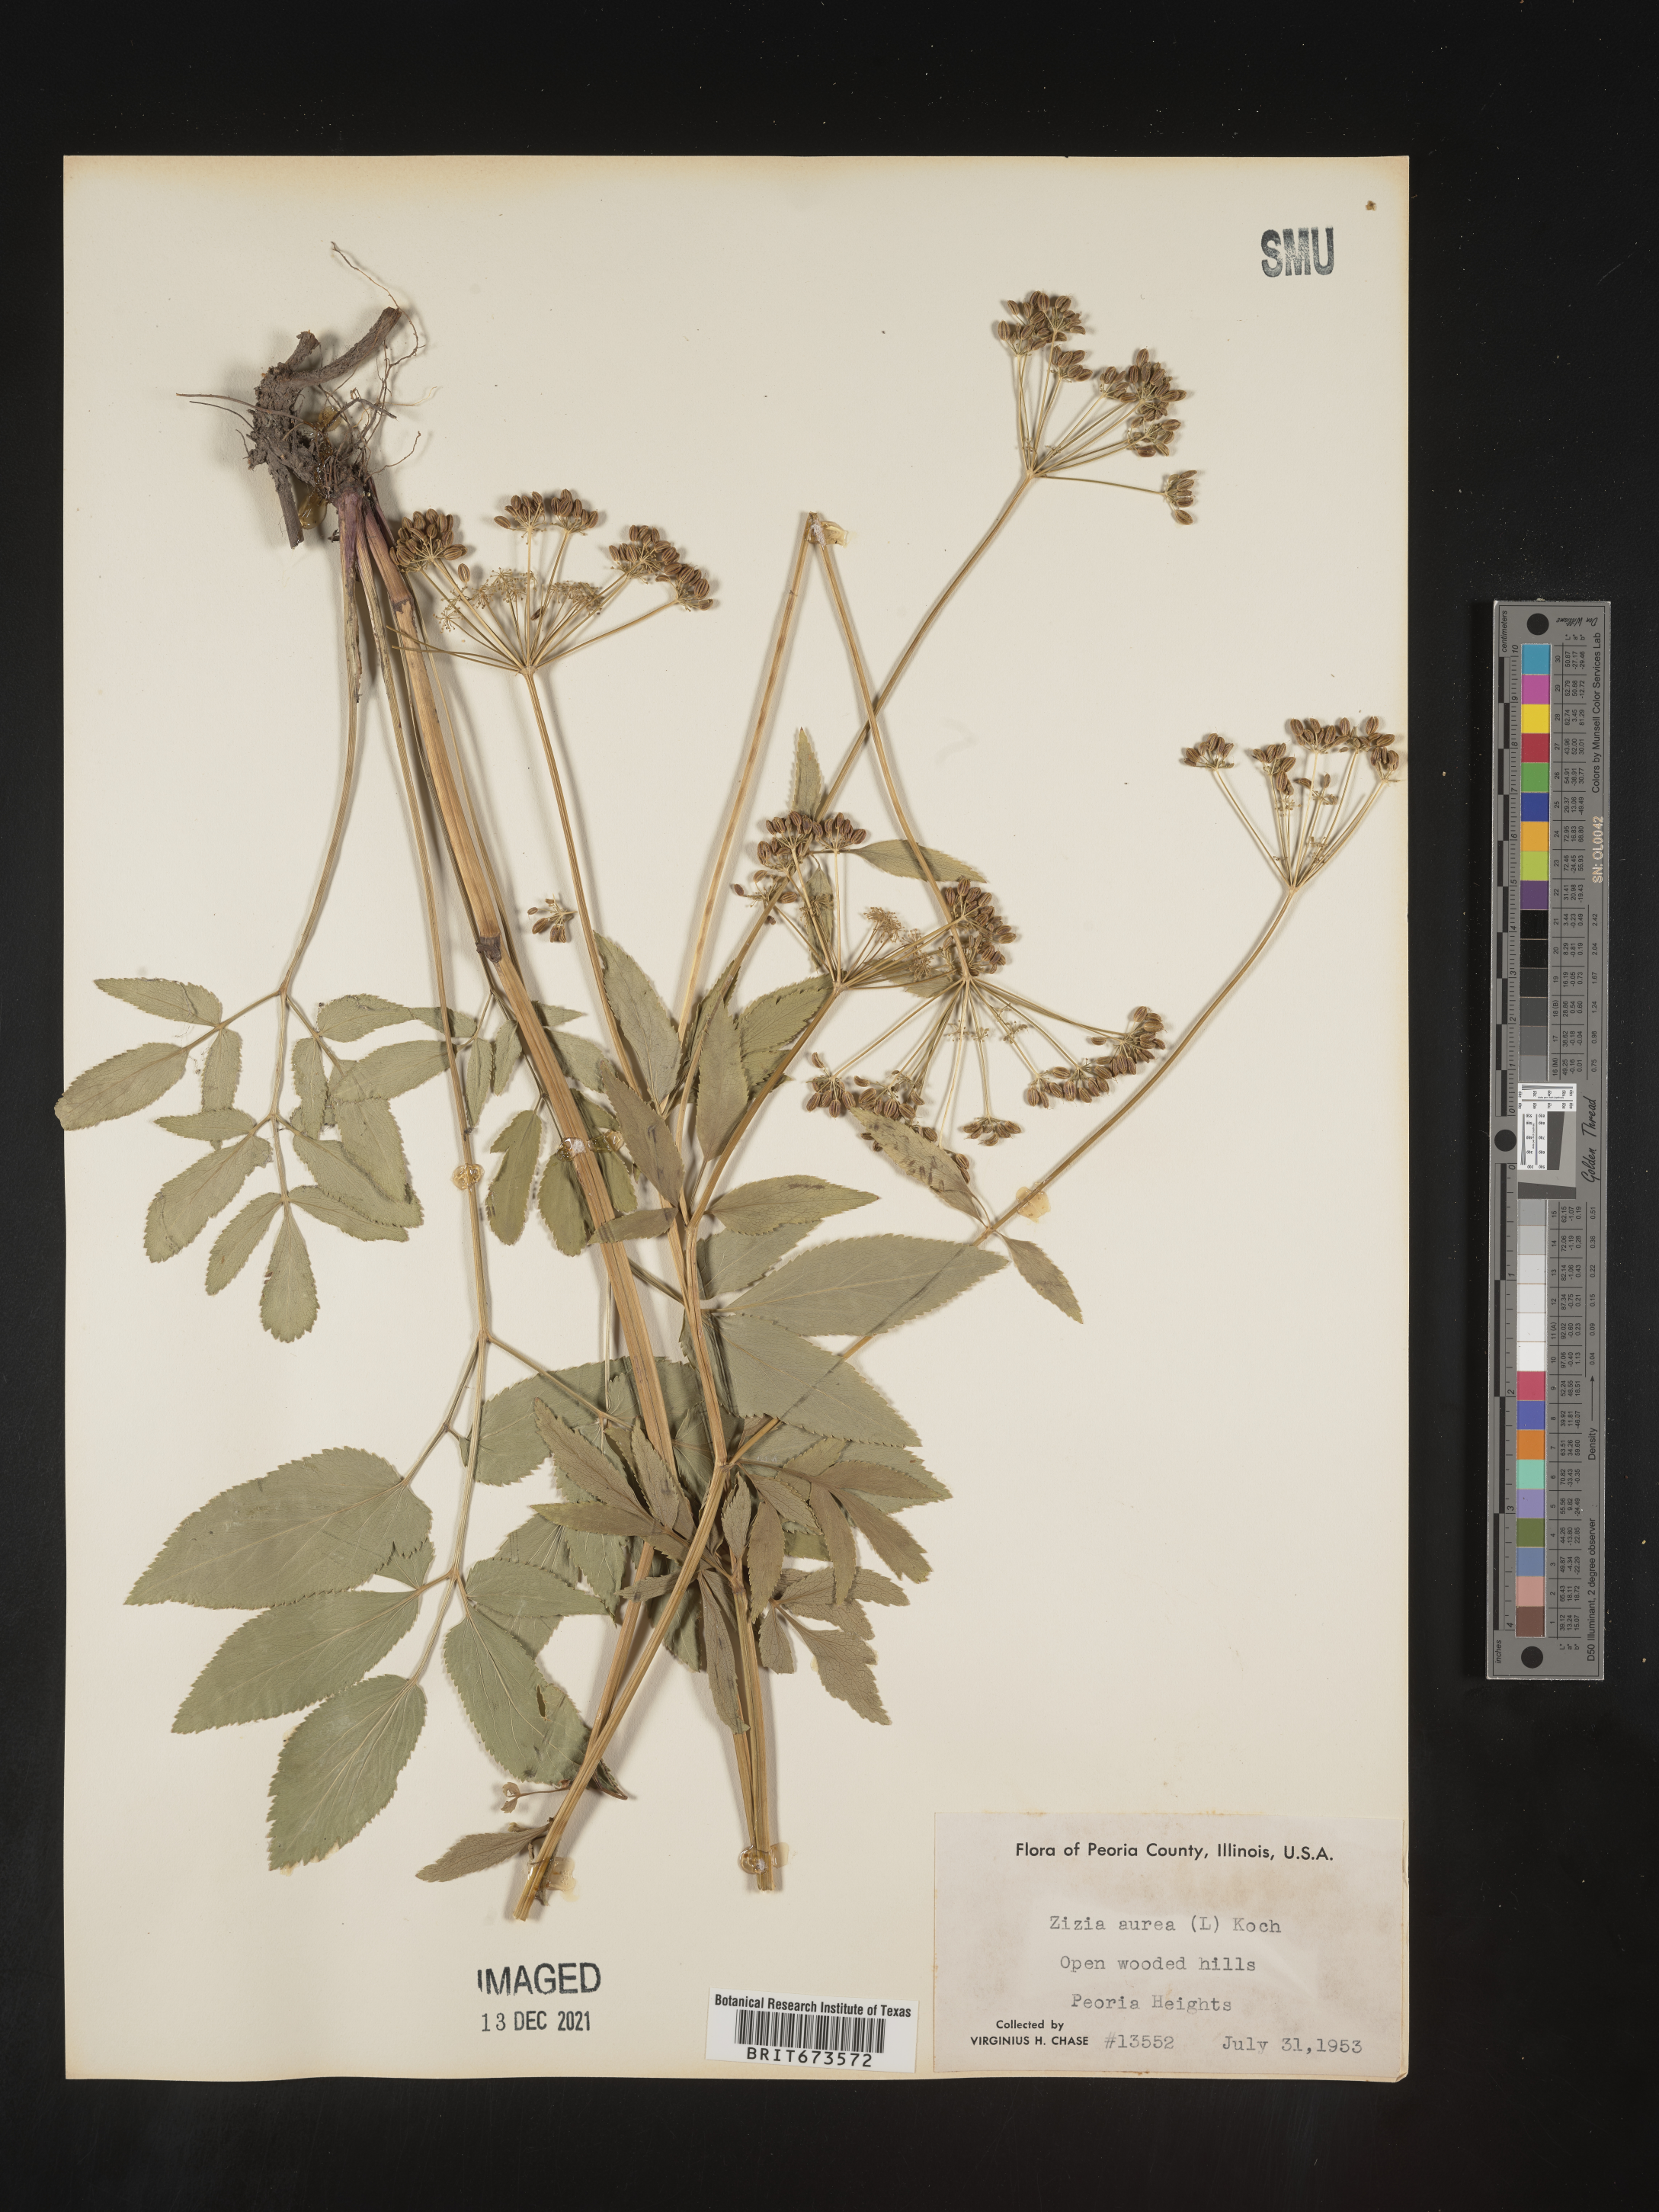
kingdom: Plantae
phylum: Tracheophyta
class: Magnoliopsida
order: Apiales
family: Apiaceae
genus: Zizia
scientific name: Zizia aurea
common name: Golden alexanders
